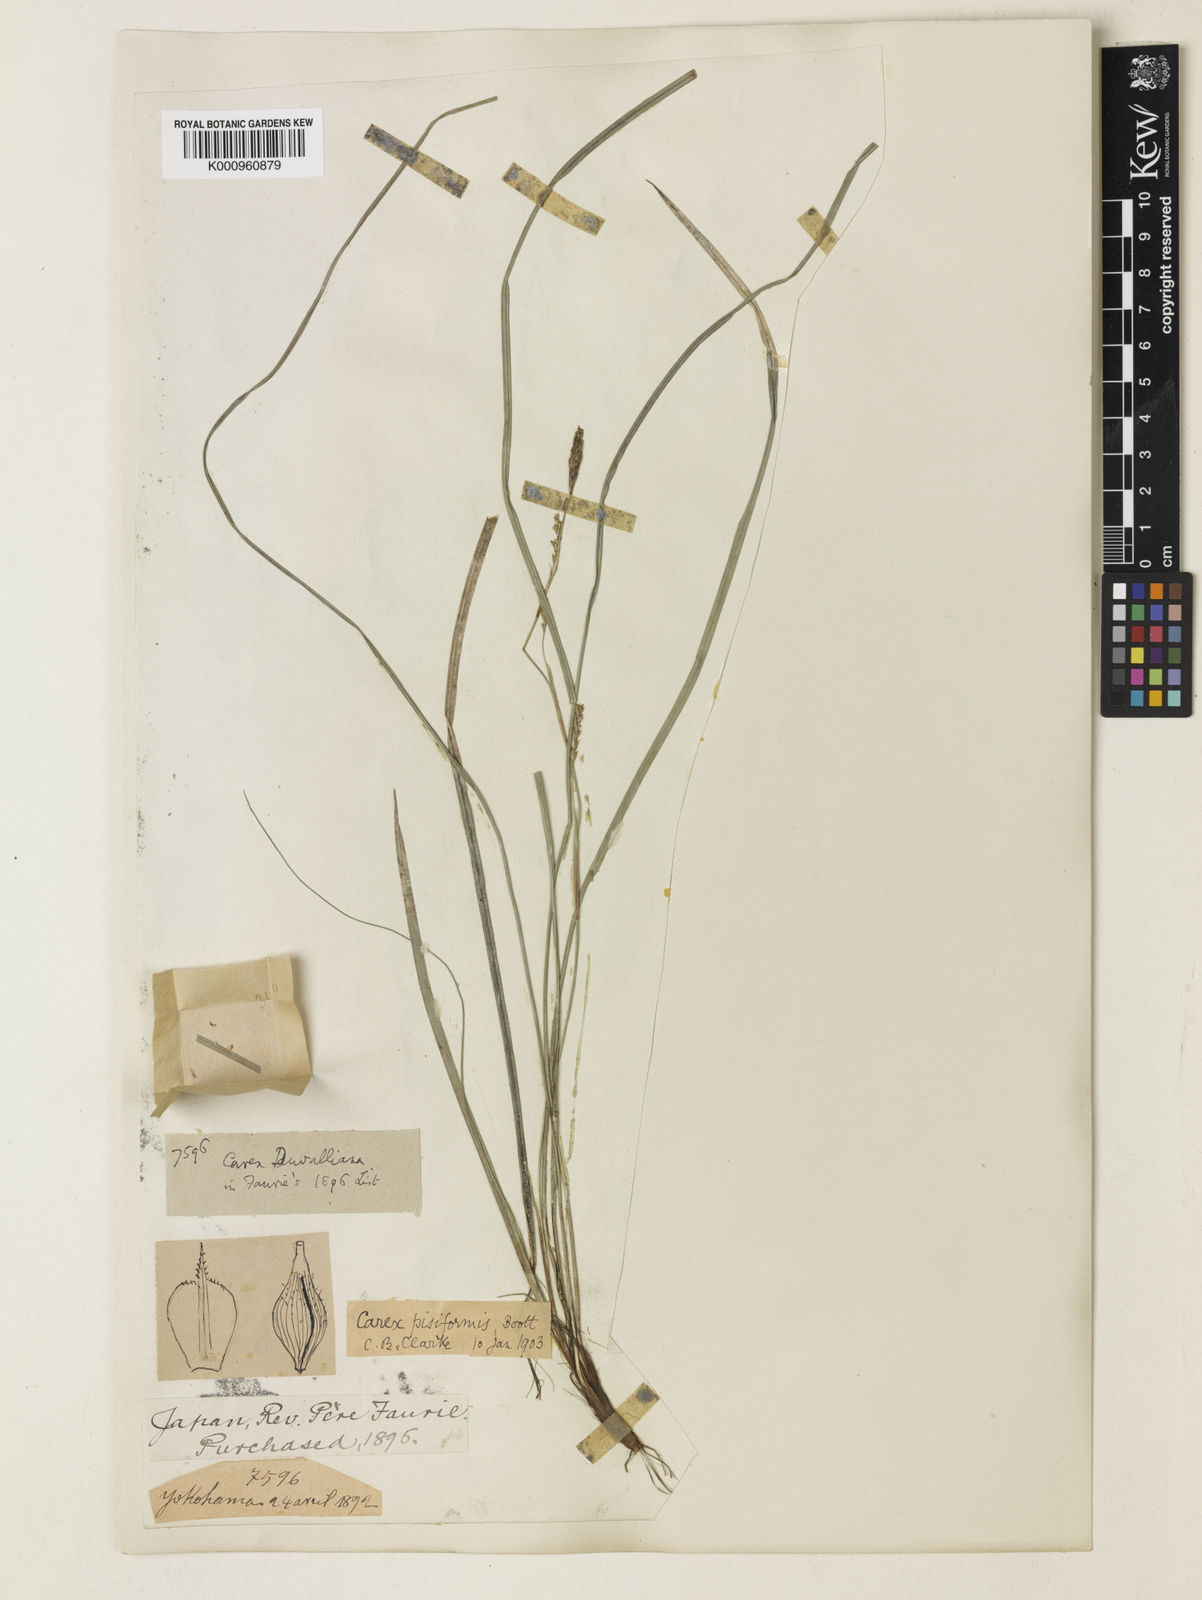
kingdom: Plantae
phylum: Tracheophyta
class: Liliopsida
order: Poales
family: Cyperaceae
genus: Carex
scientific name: Carex muricata
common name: Rough sedge
